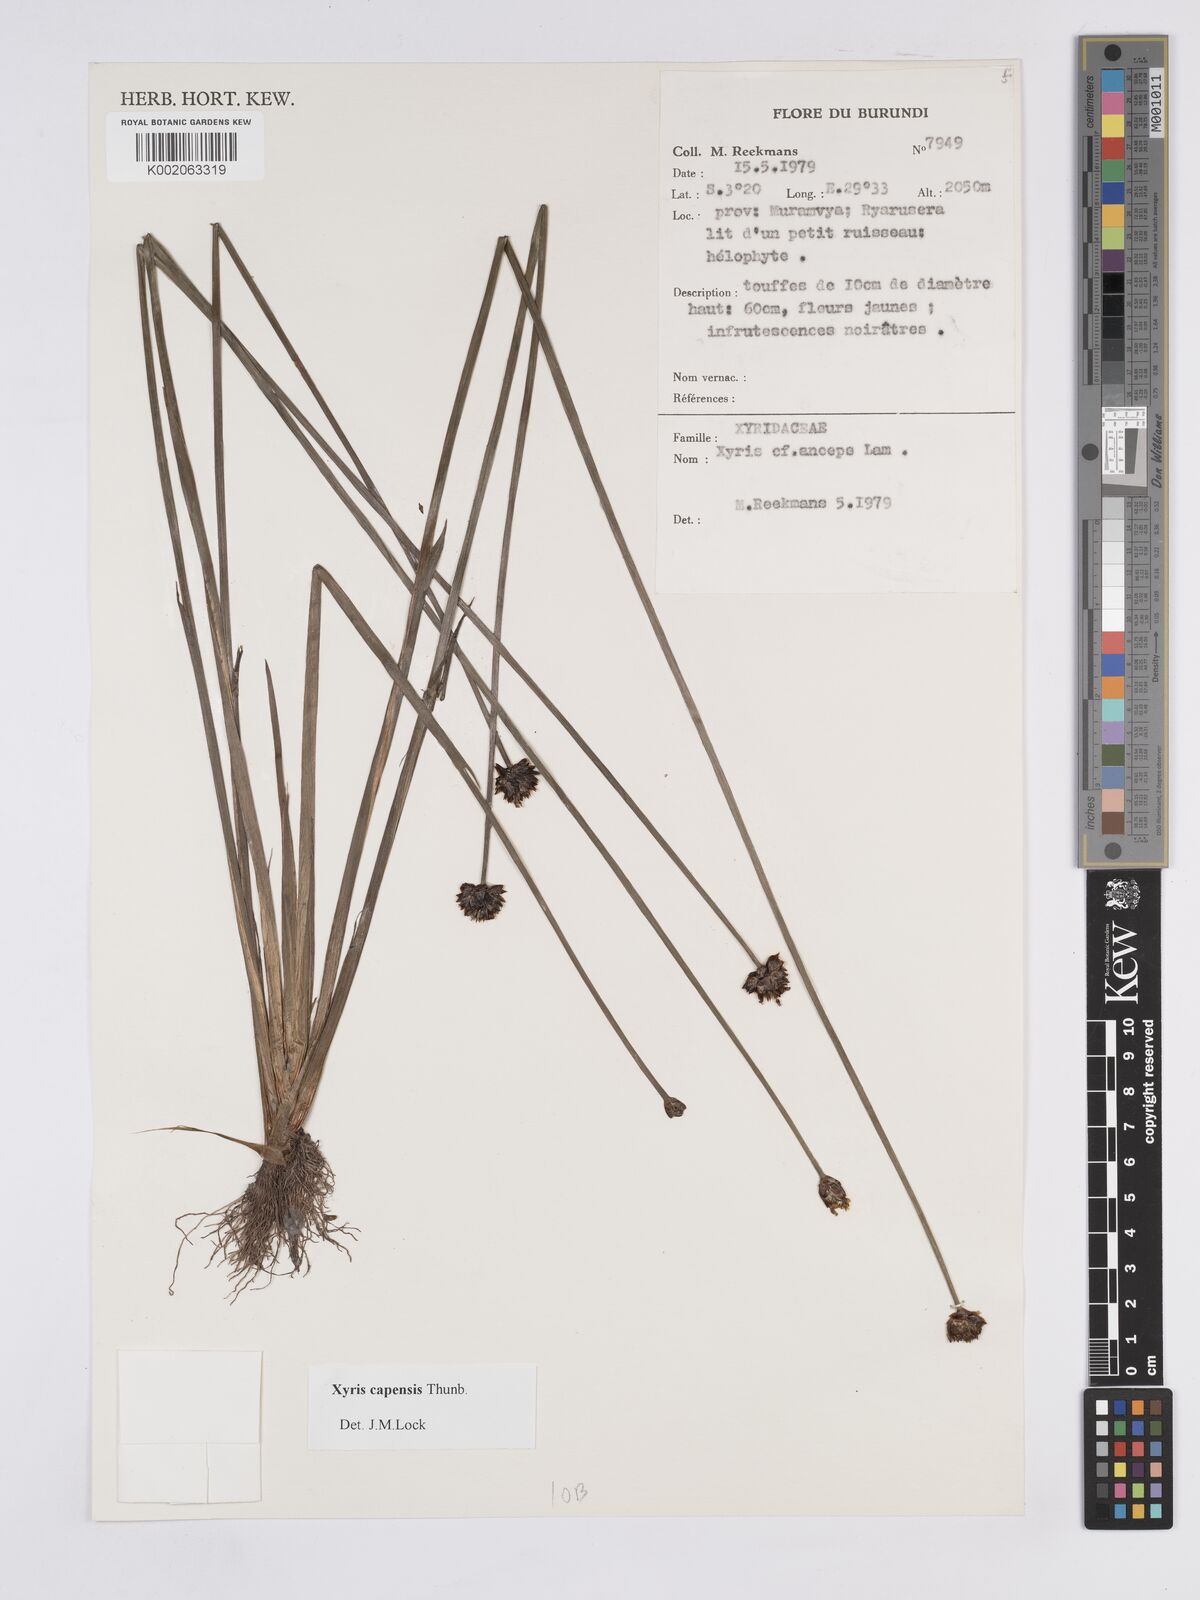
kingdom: Plantae
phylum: Tracheophyta
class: Liliopsida
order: Poales
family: Xyridaceae
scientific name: Xyridaceae
